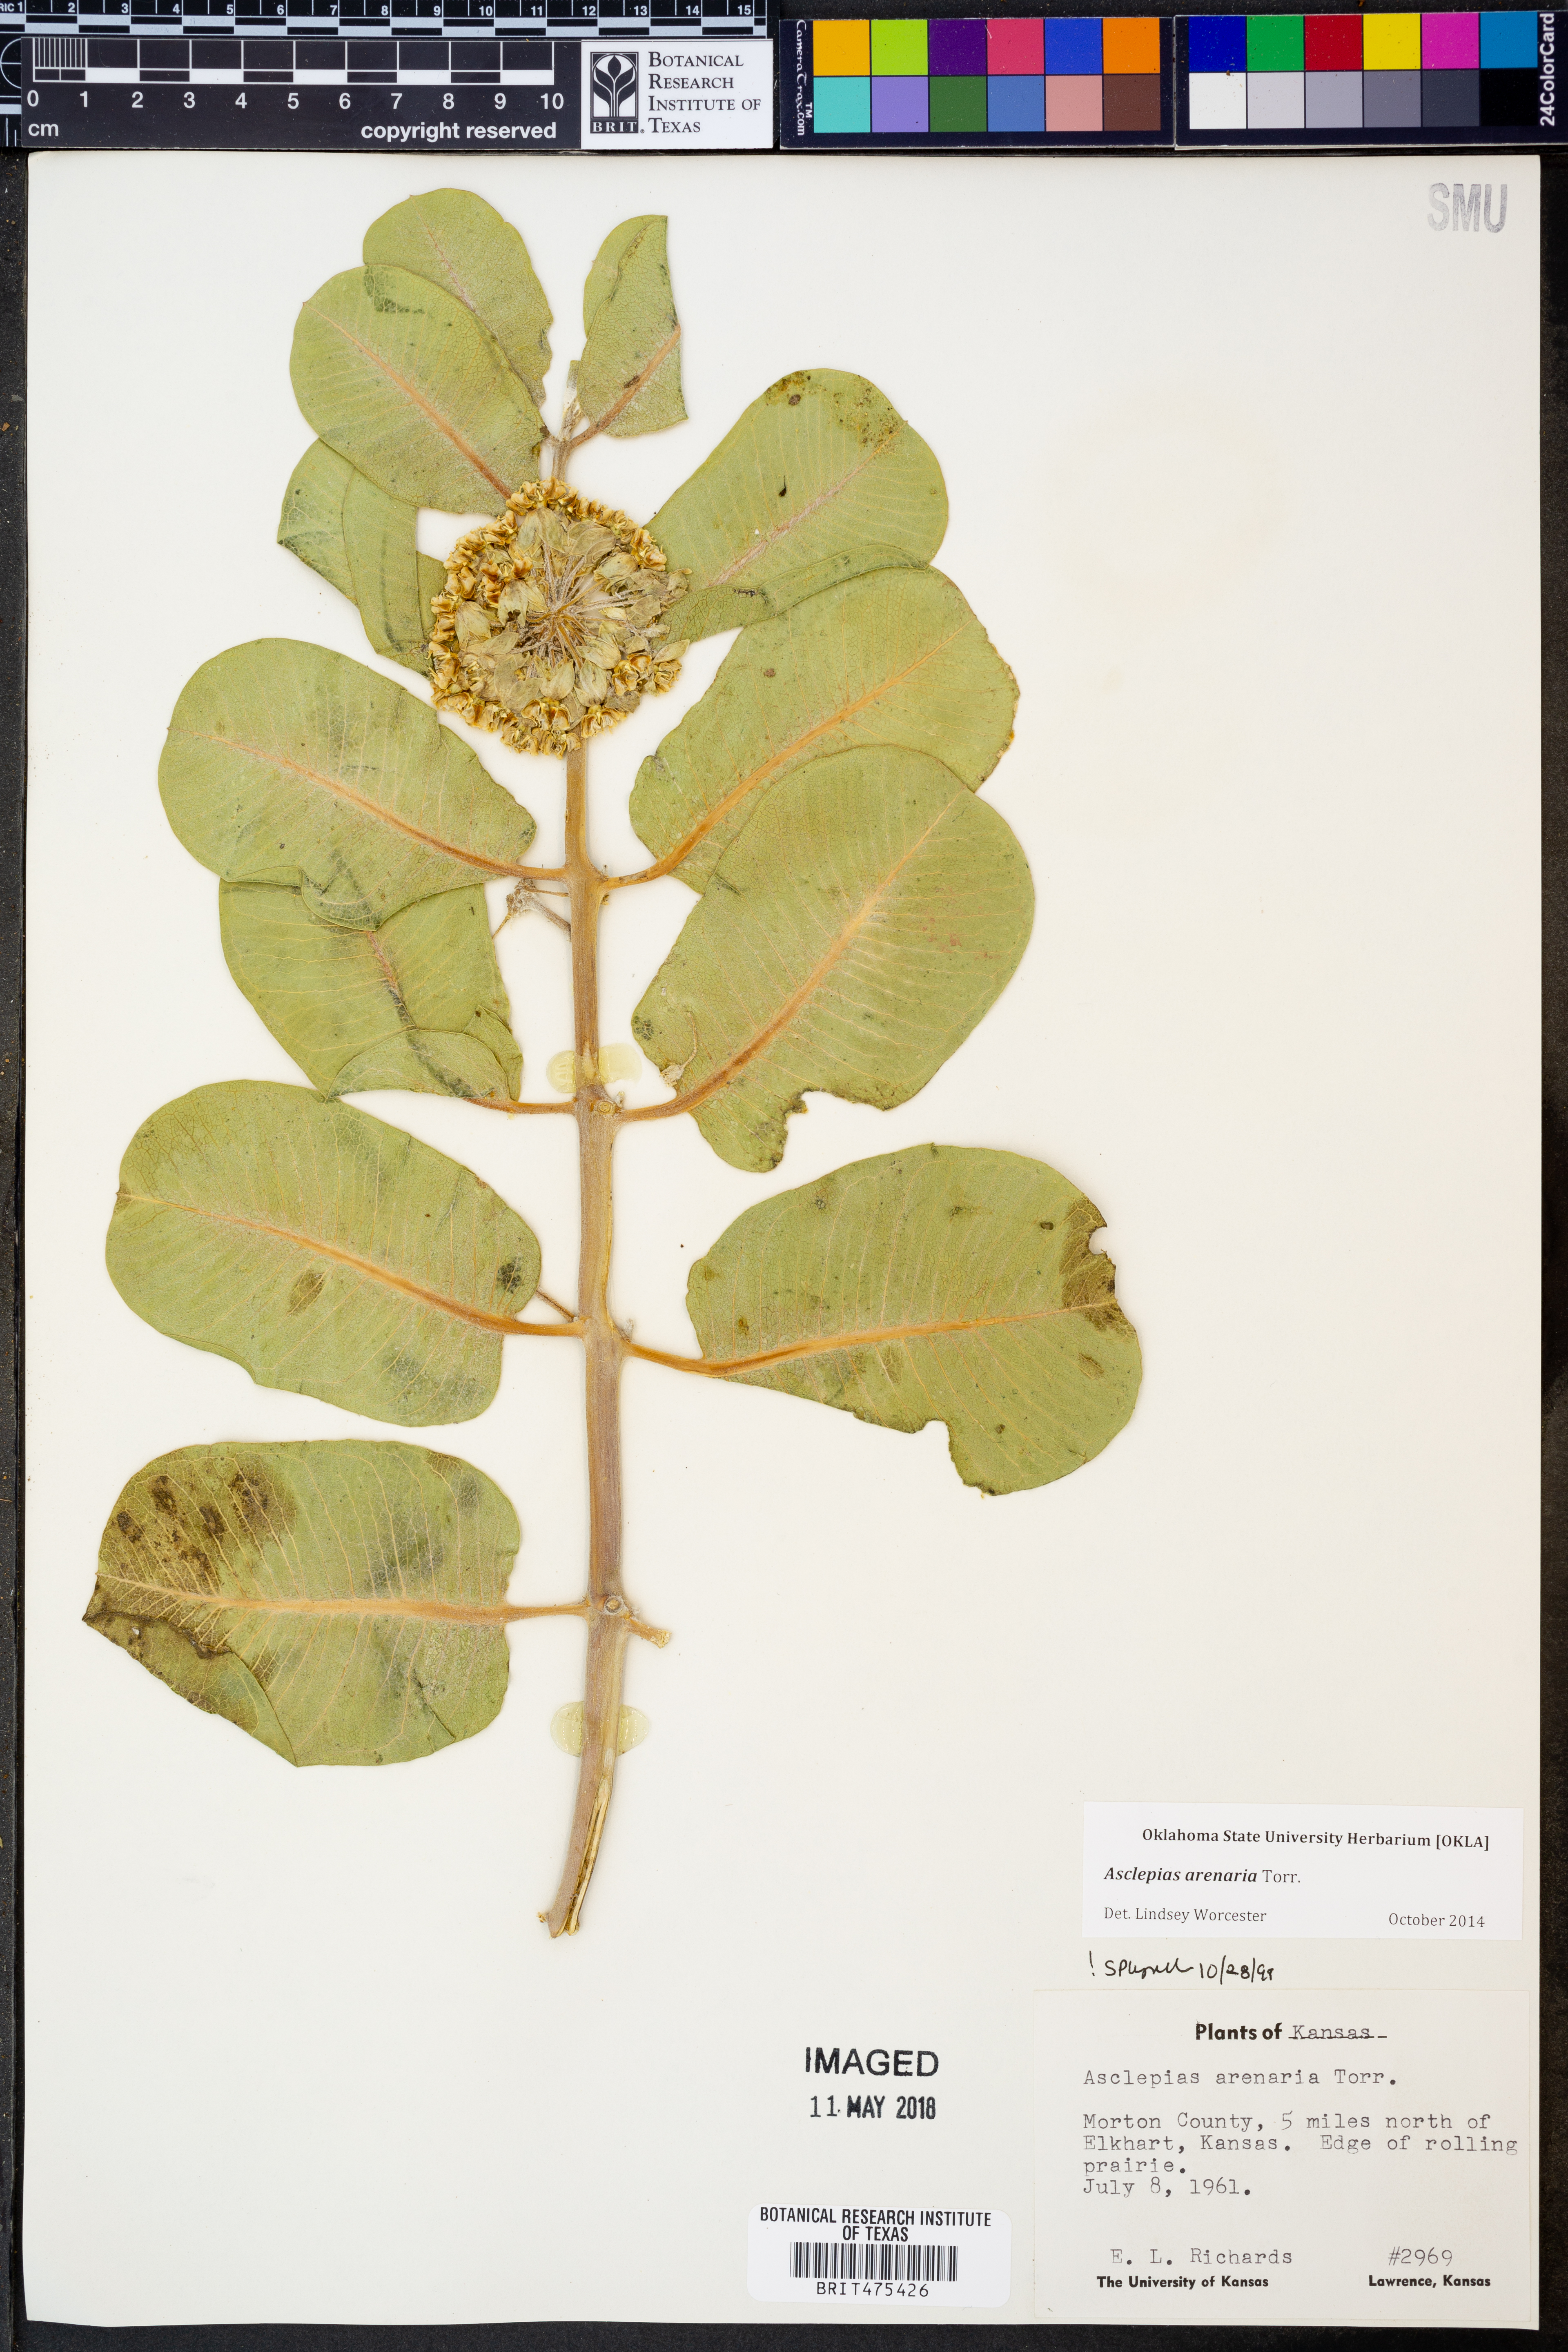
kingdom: Plantae
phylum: Tracheophyta
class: Magnoliopsida
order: Gentianales
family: Apocynaceae
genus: Asclepias
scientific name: Asclepias arenaria
